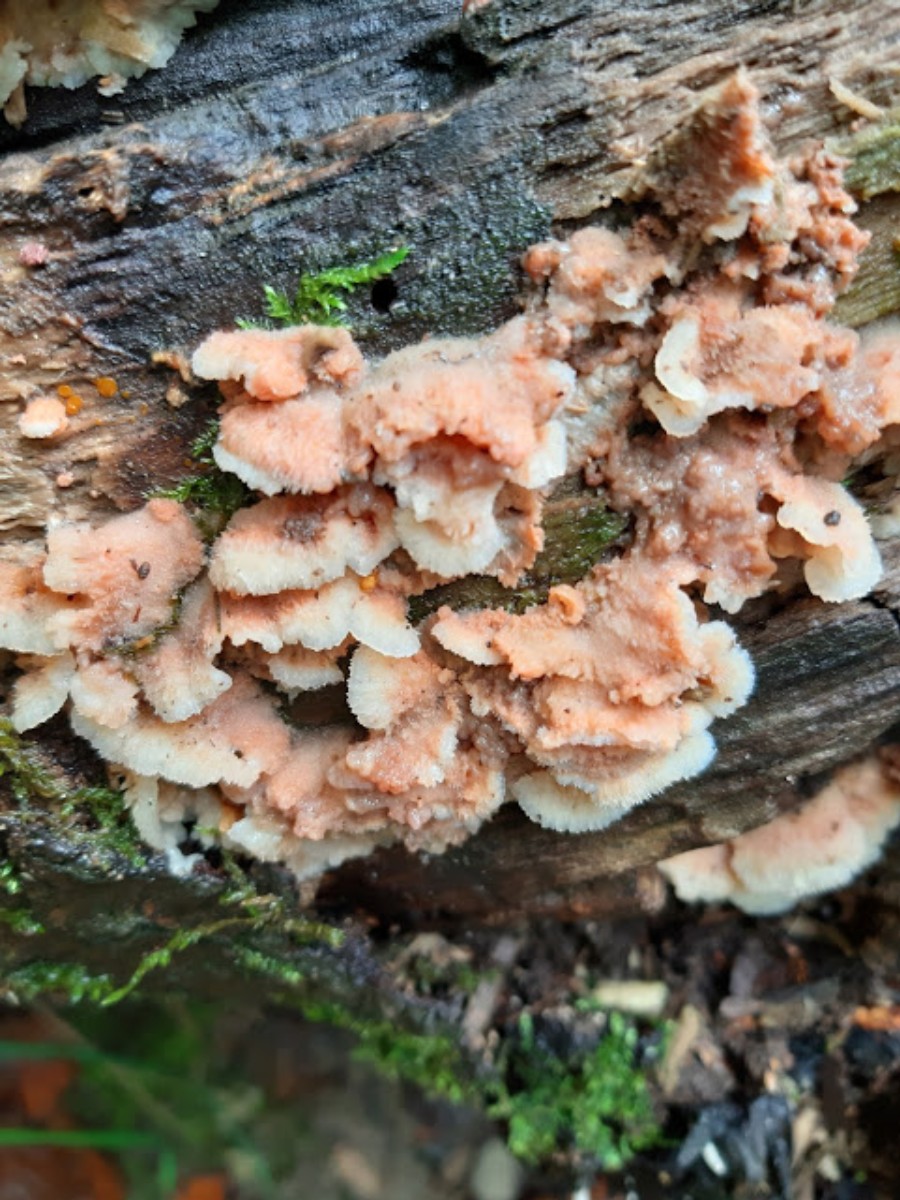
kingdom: Fungi
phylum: Basidiomycota
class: Agaricomycetes
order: Polyporales
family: Meruliaceae
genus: Phlebia
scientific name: Phlebia tremellosa
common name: bævrende åresvamp
